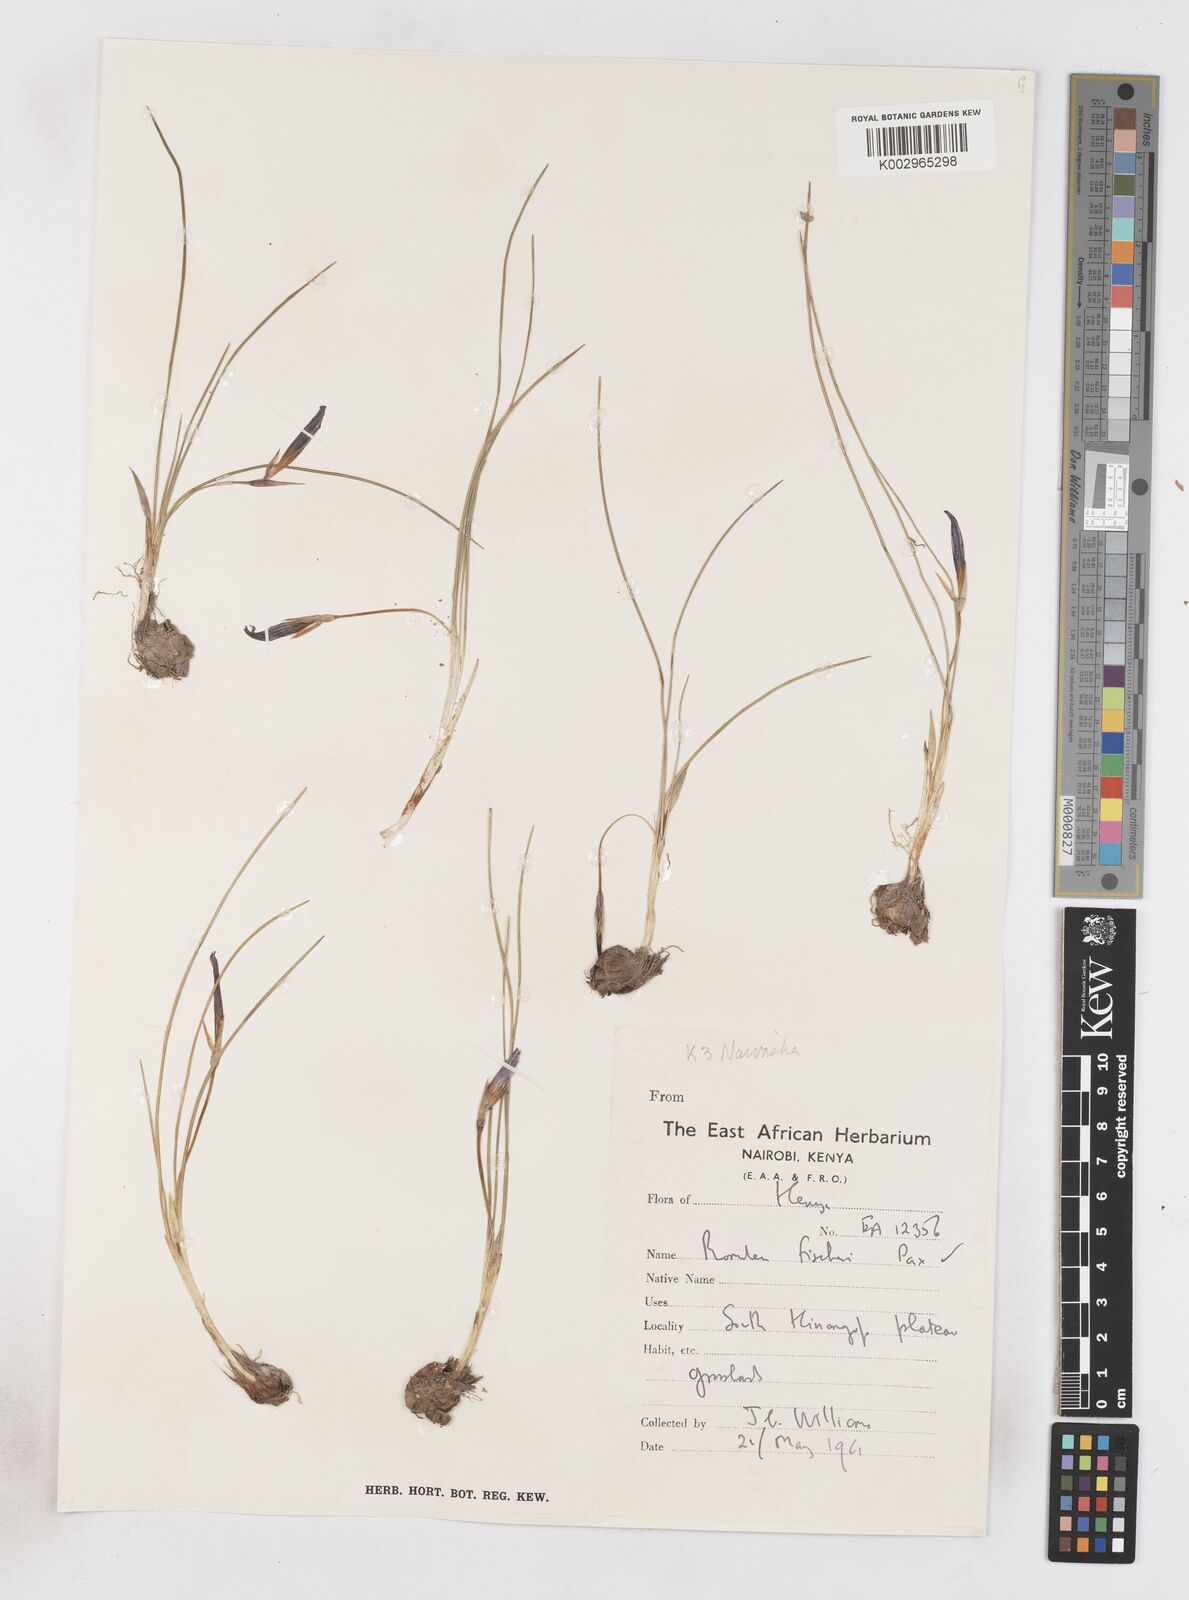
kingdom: Plantae
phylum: Tracheophyta
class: Liliopsida
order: Asparagales
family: Iridaceae
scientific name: Iridaceae
